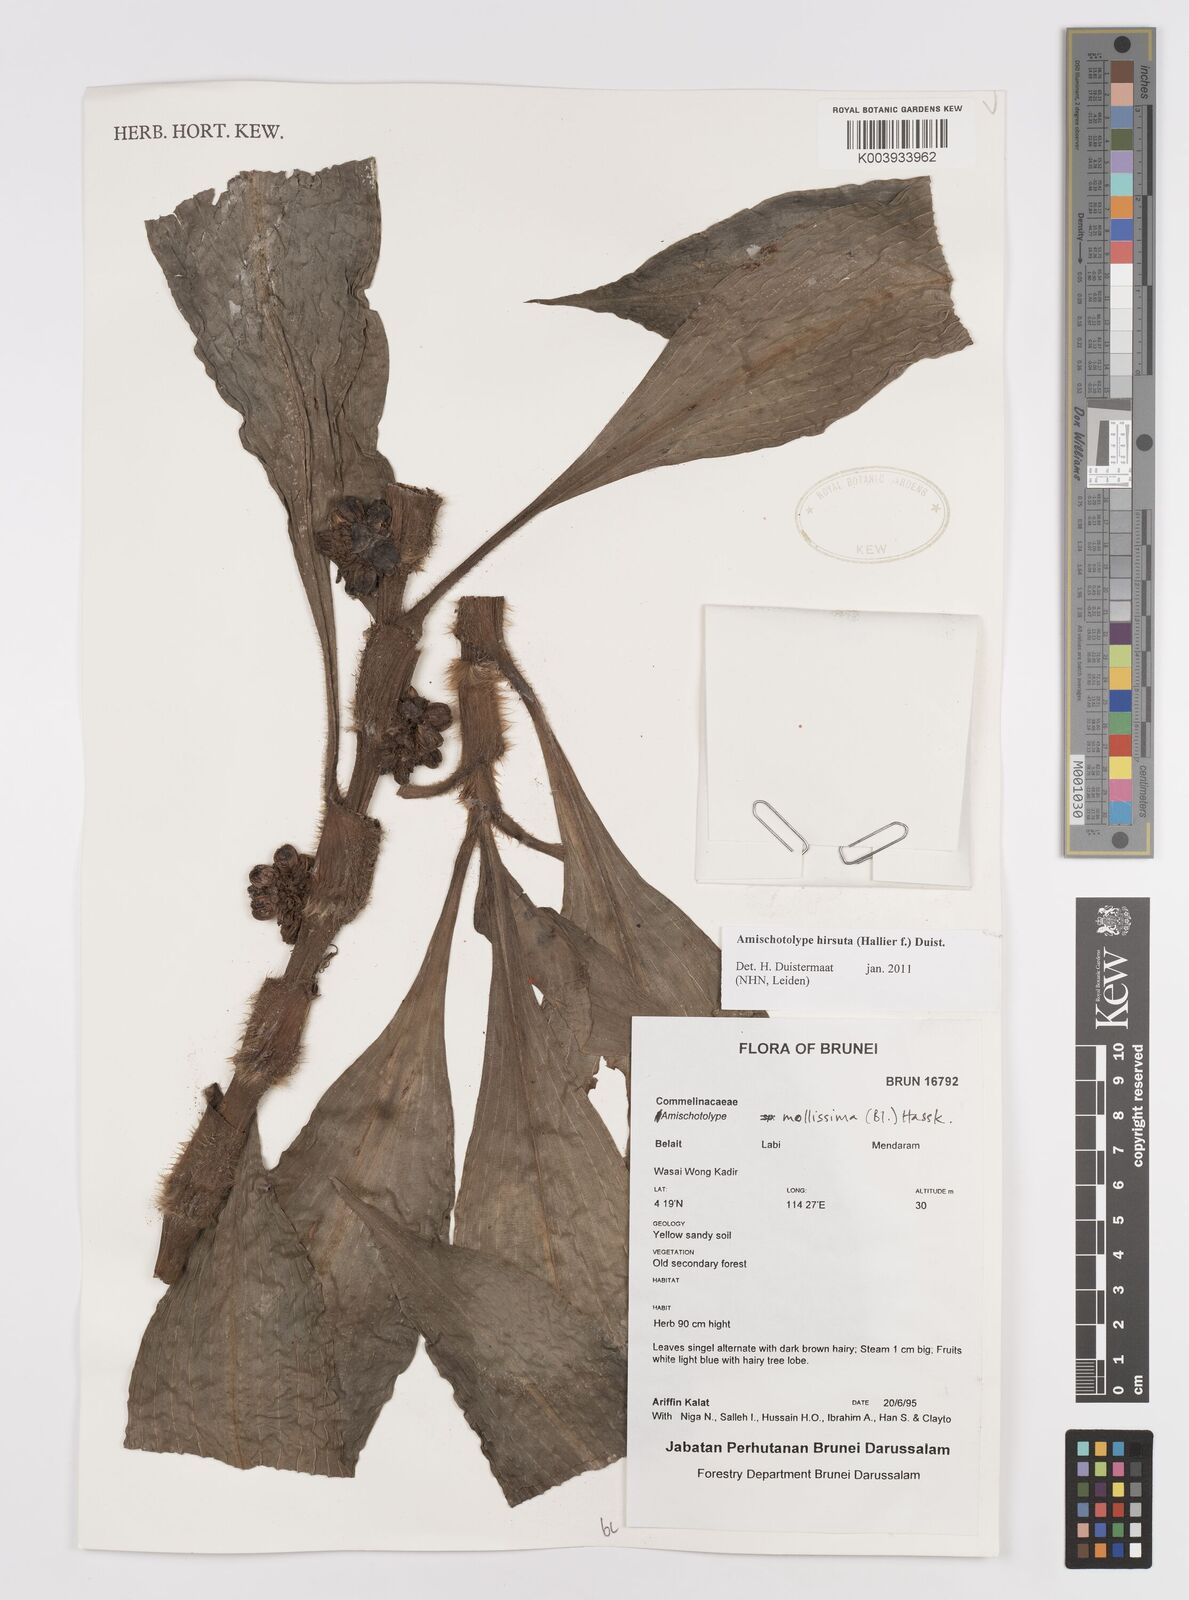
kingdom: Plantae
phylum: Tracheophyta
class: Liliopsida
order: Commelinales
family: Commelinaceae
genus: Amischotolype
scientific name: Amischotolype hirsuta
